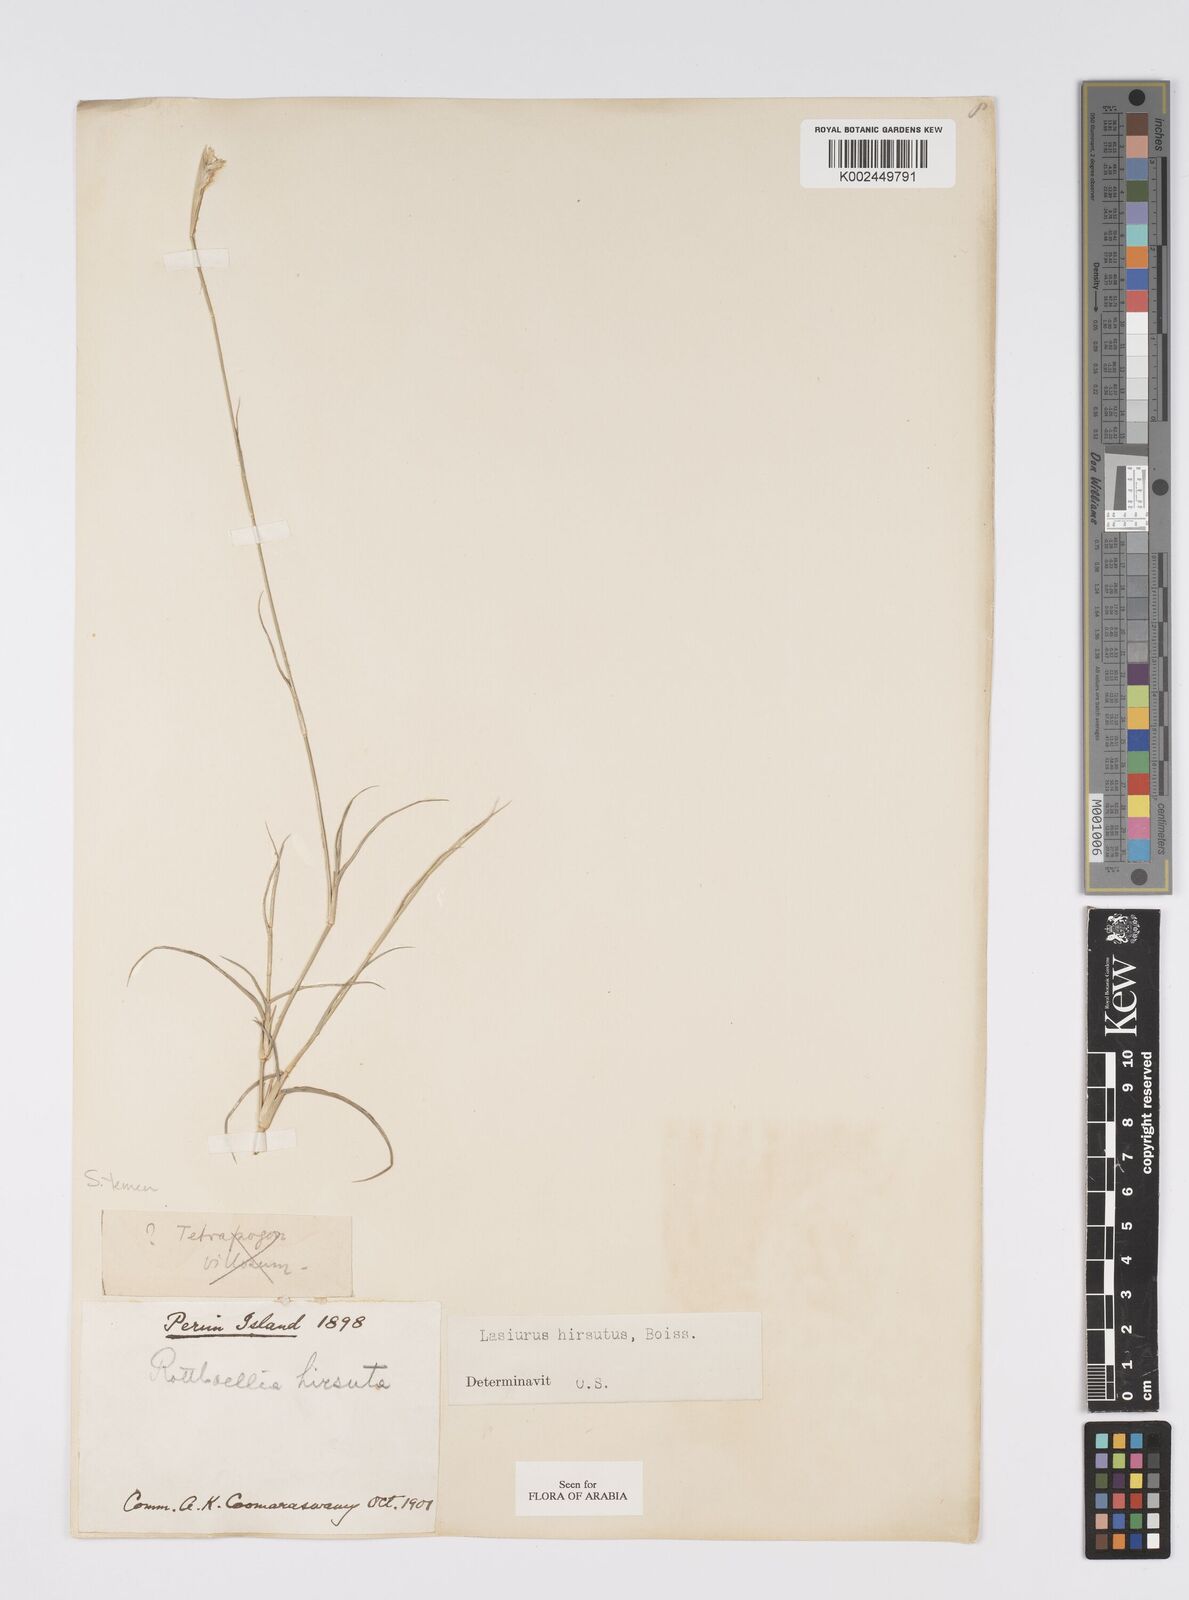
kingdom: Plantae
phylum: Tracheophyta
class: Liliopsida
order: Poales
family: Poaceae
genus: Lasiurus
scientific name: Lasiurus scindicus
